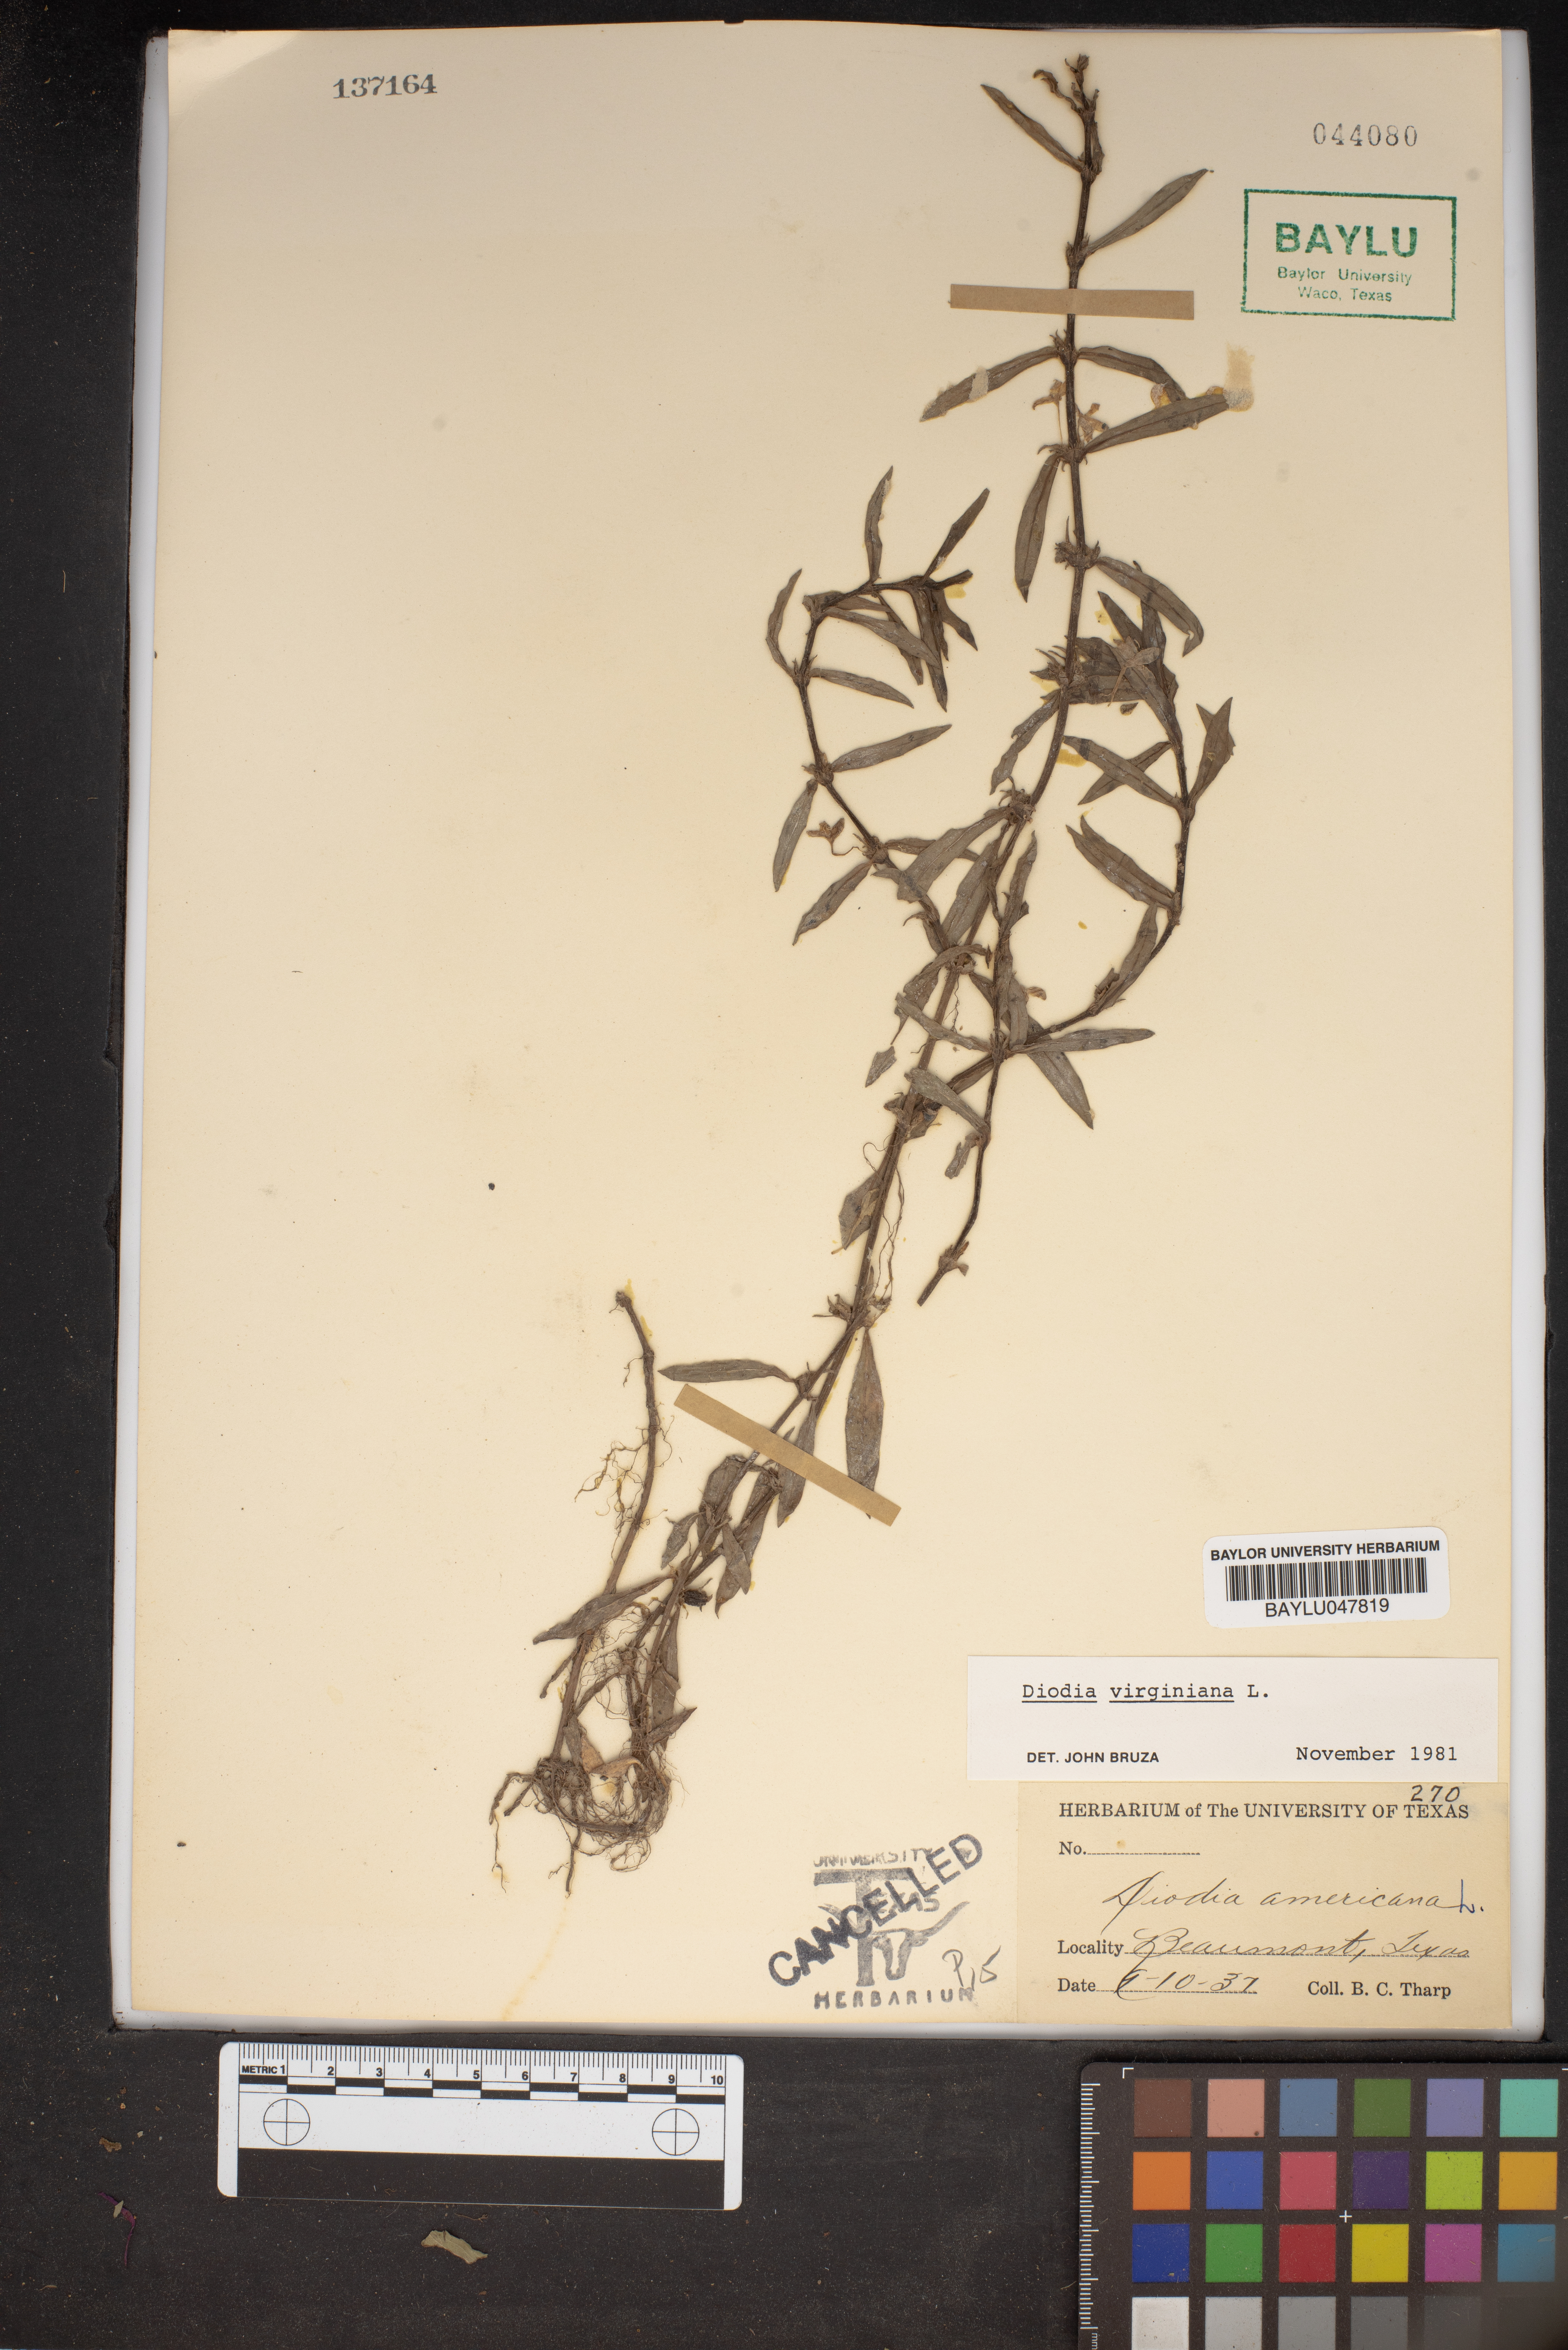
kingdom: Plantae
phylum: Tracheophyta
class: Magnoliopsida
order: Gentianales
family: Rubiaceae
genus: Diodia
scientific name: Diodia virginiana
